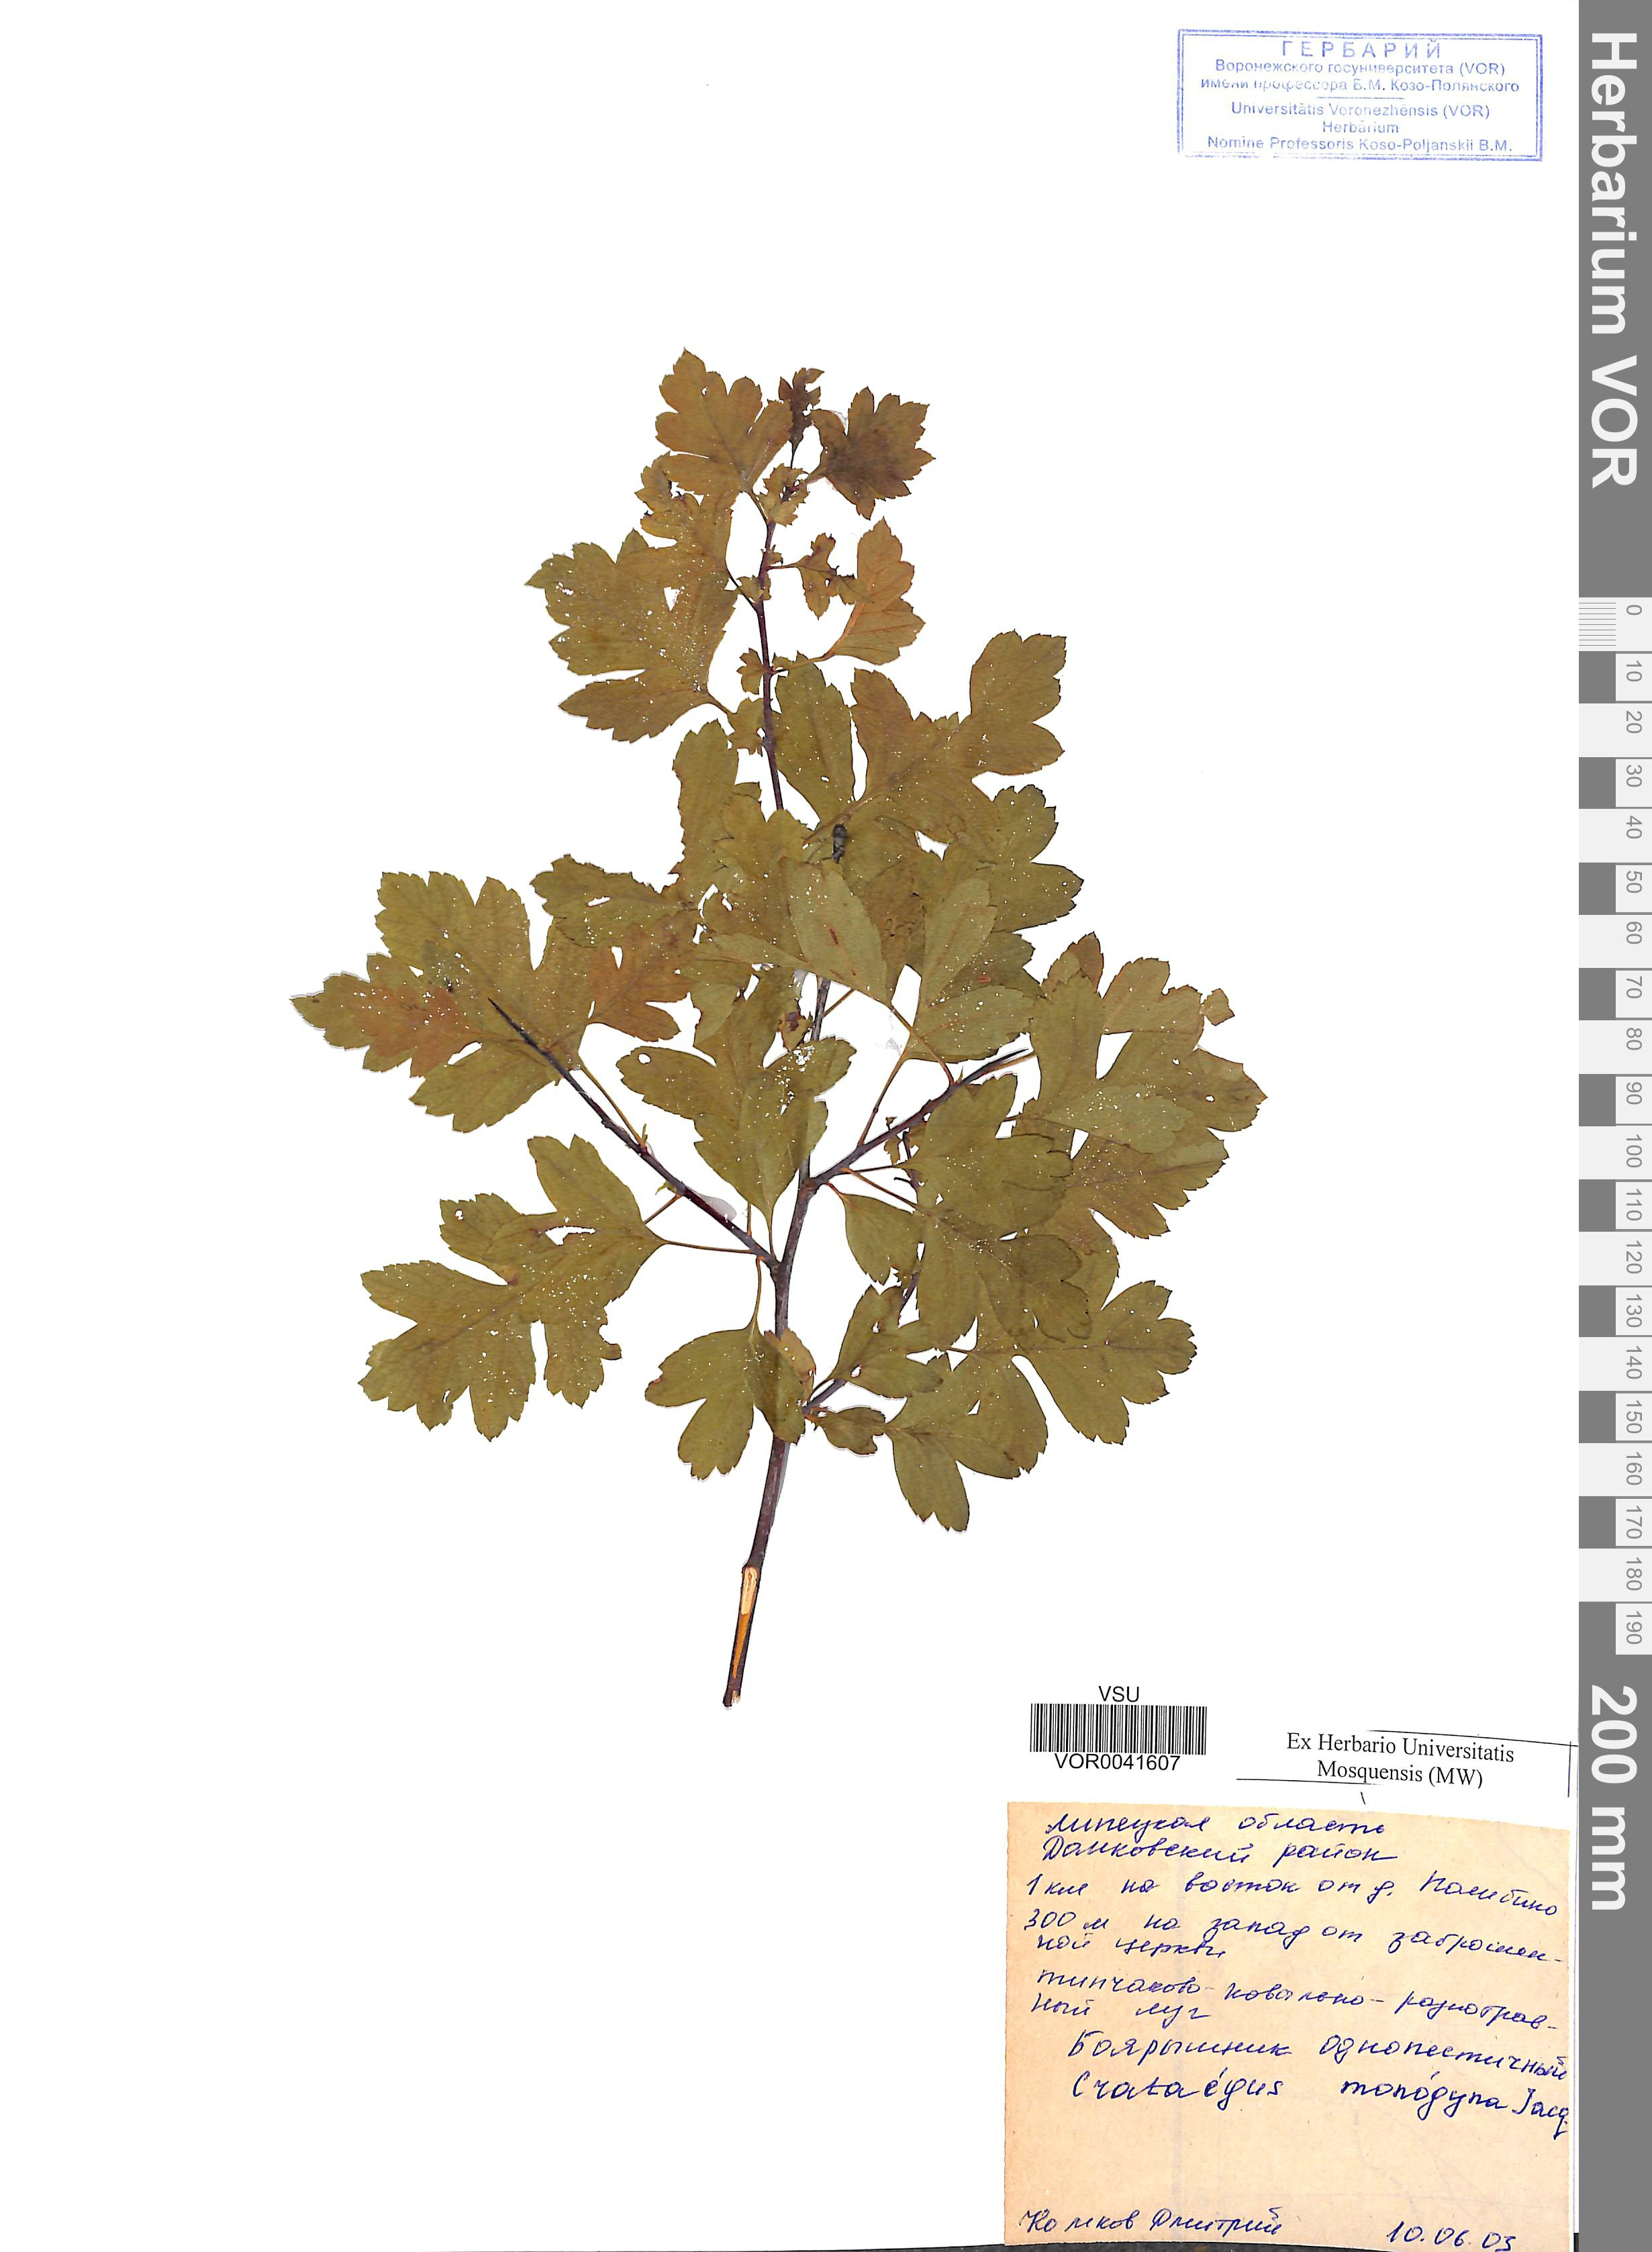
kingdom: Plantae
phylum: Tracheophyta
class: Magnoliopsida
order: Rosales
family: Rosaceae
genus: Crataegus
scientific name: Crataegus monogyna
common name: Hawthorn
